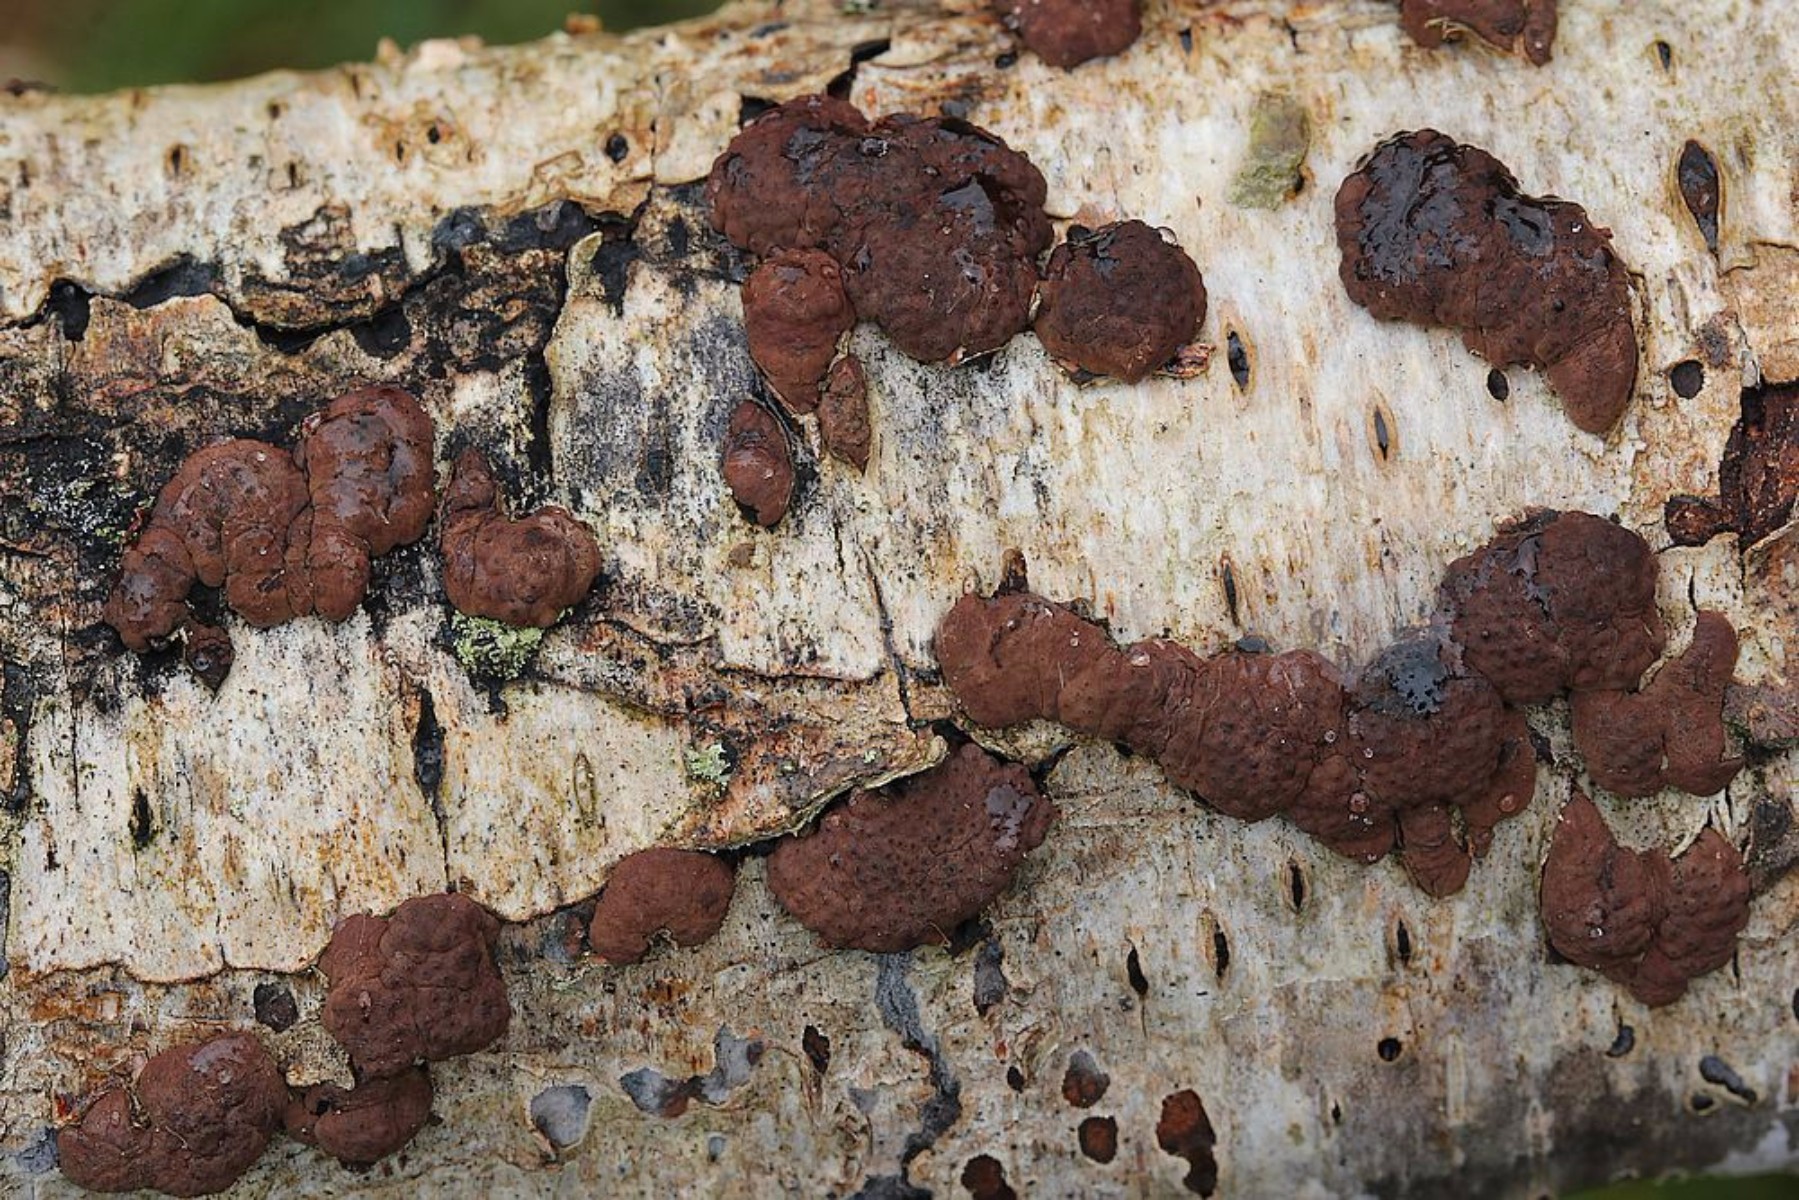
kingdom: Fungi
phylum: Ascomycota
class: Sordariomycetes
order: Xylariales
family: Hypoxylaceae
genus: Jackrogersella
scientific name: Jackrogersella multiformis
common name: foranderlig kulbær
